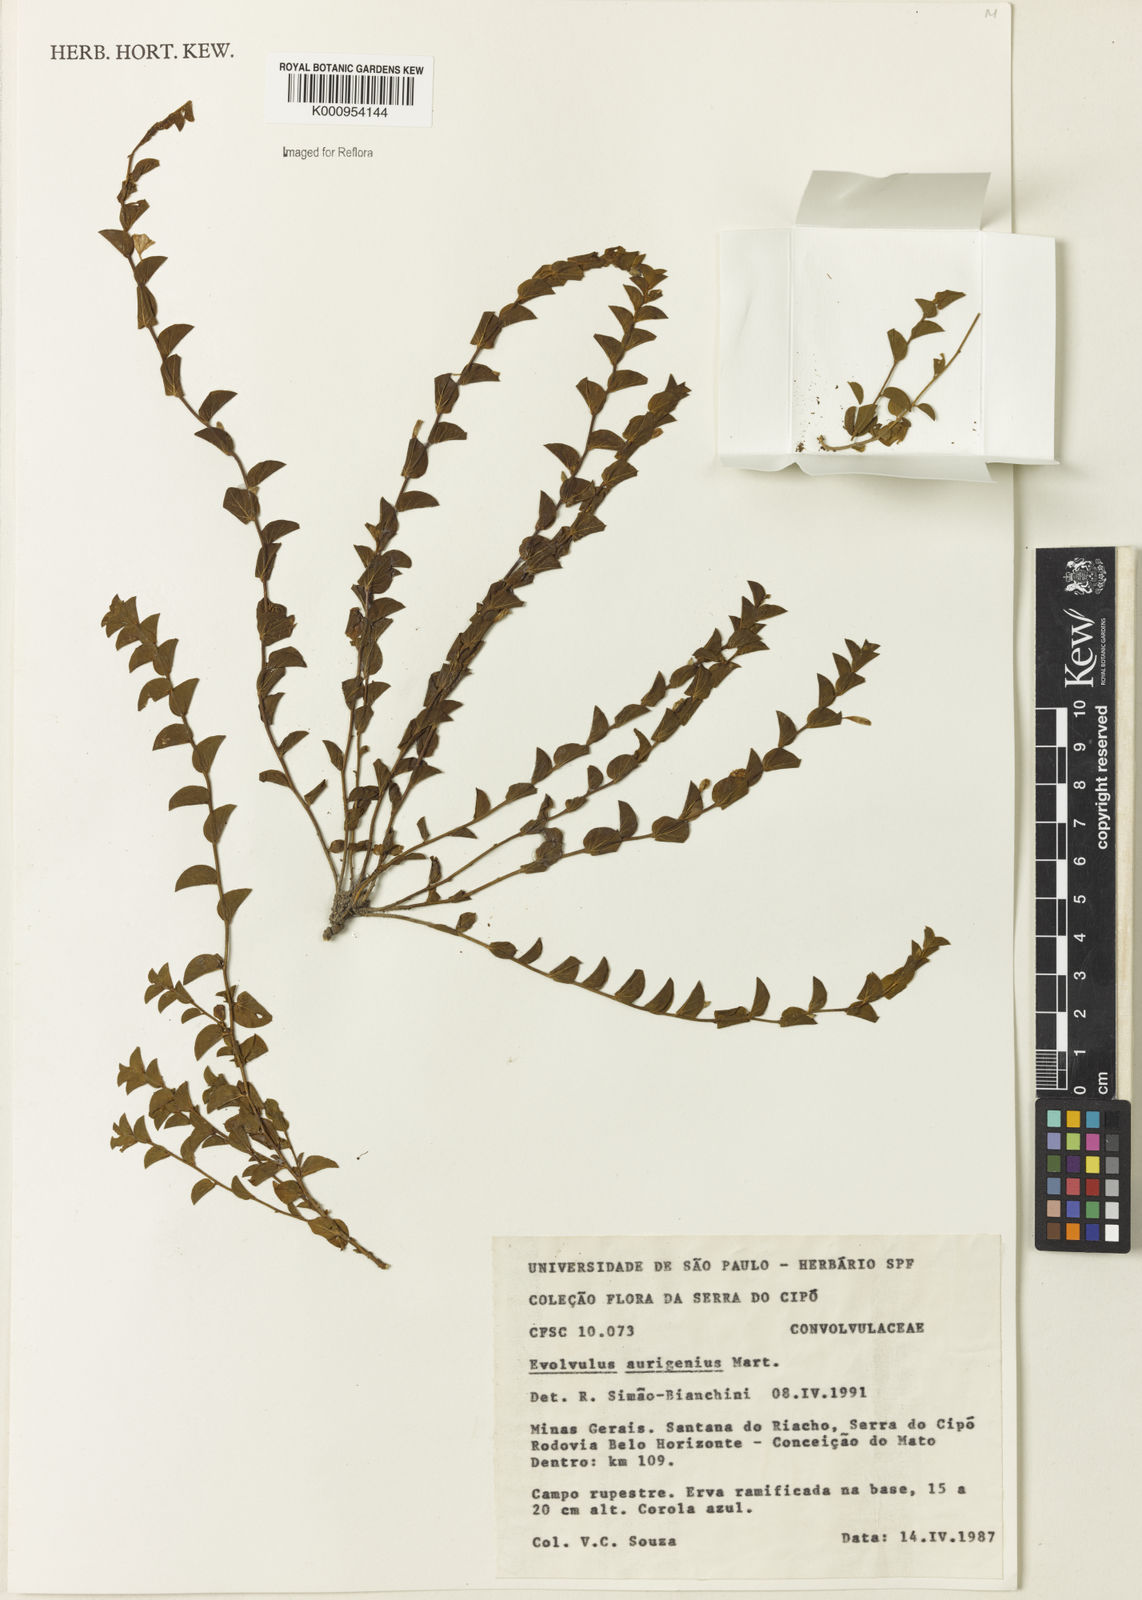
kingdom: Plantae
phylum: Tracheophyta
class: Magnoliopsida
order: Solanales
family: Convolvulaceae
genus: Evolvulus
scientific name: Evolvulus aurigenius
